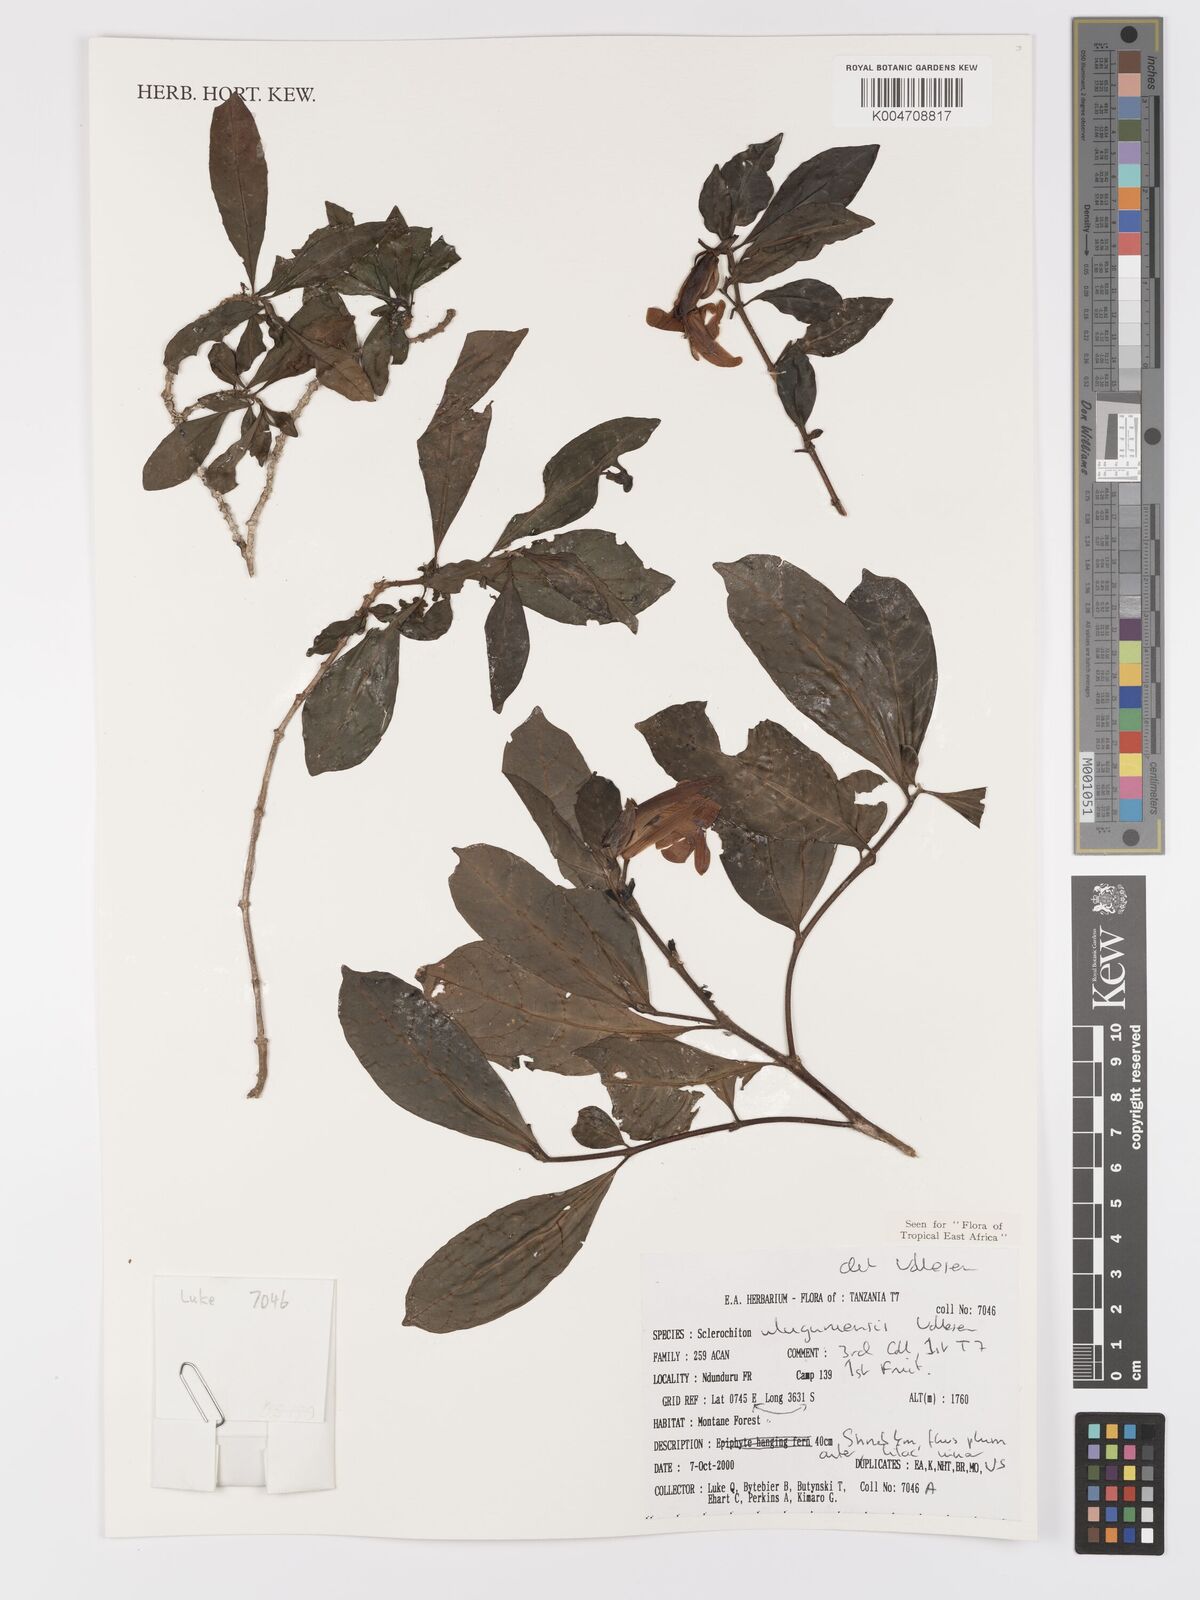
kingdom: Plantae
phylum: Tracheophyta
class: Magnoliopsida
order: Lamiales
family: Acanthaceae
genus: Sclerochiton
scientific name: Sclerochiton uluguruensis
